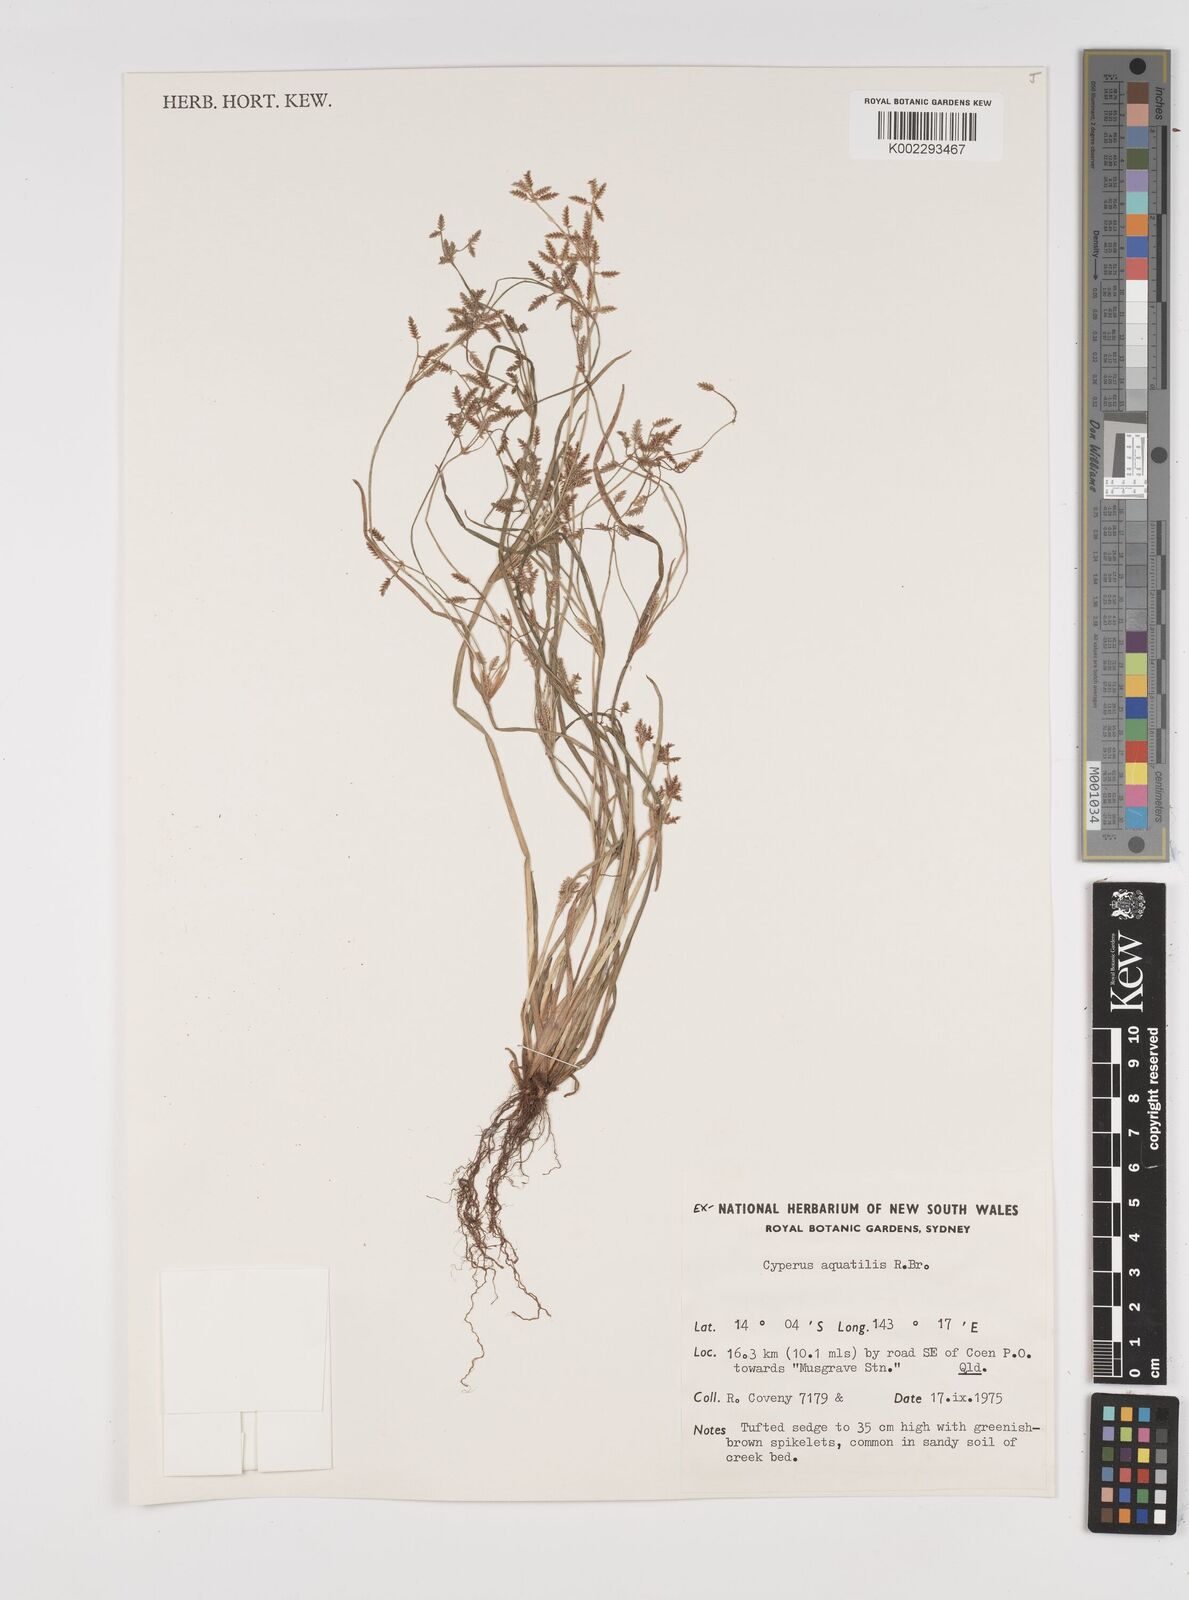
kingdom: Plantae
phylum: Tracheophyta
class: Liliopsida
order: Poales
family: Cyperaceae
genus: Cyperus
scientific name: Cyperus trinervis
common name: Australian flatsedge
